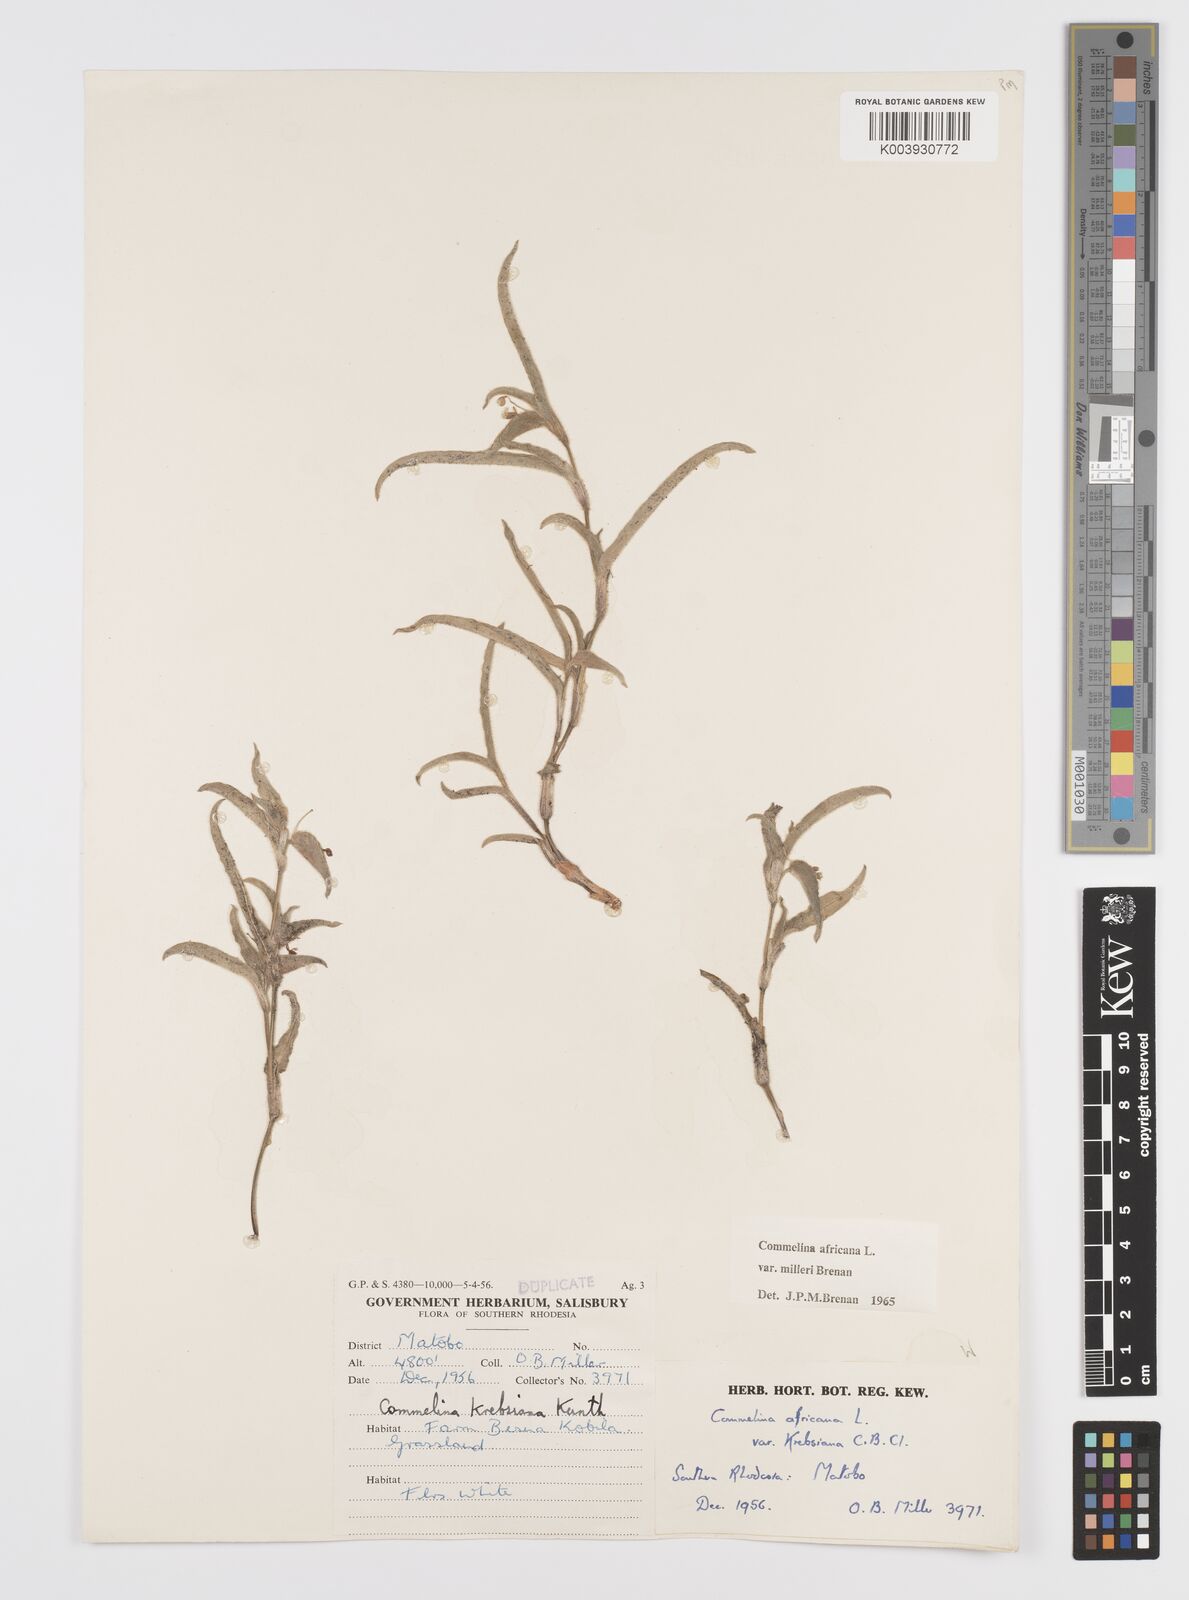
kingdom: Plantae
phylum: Tracheophyta
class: Liliopsida
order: Commelinales
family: Commelinaceae
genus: Commelina
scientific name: Commelina africana
